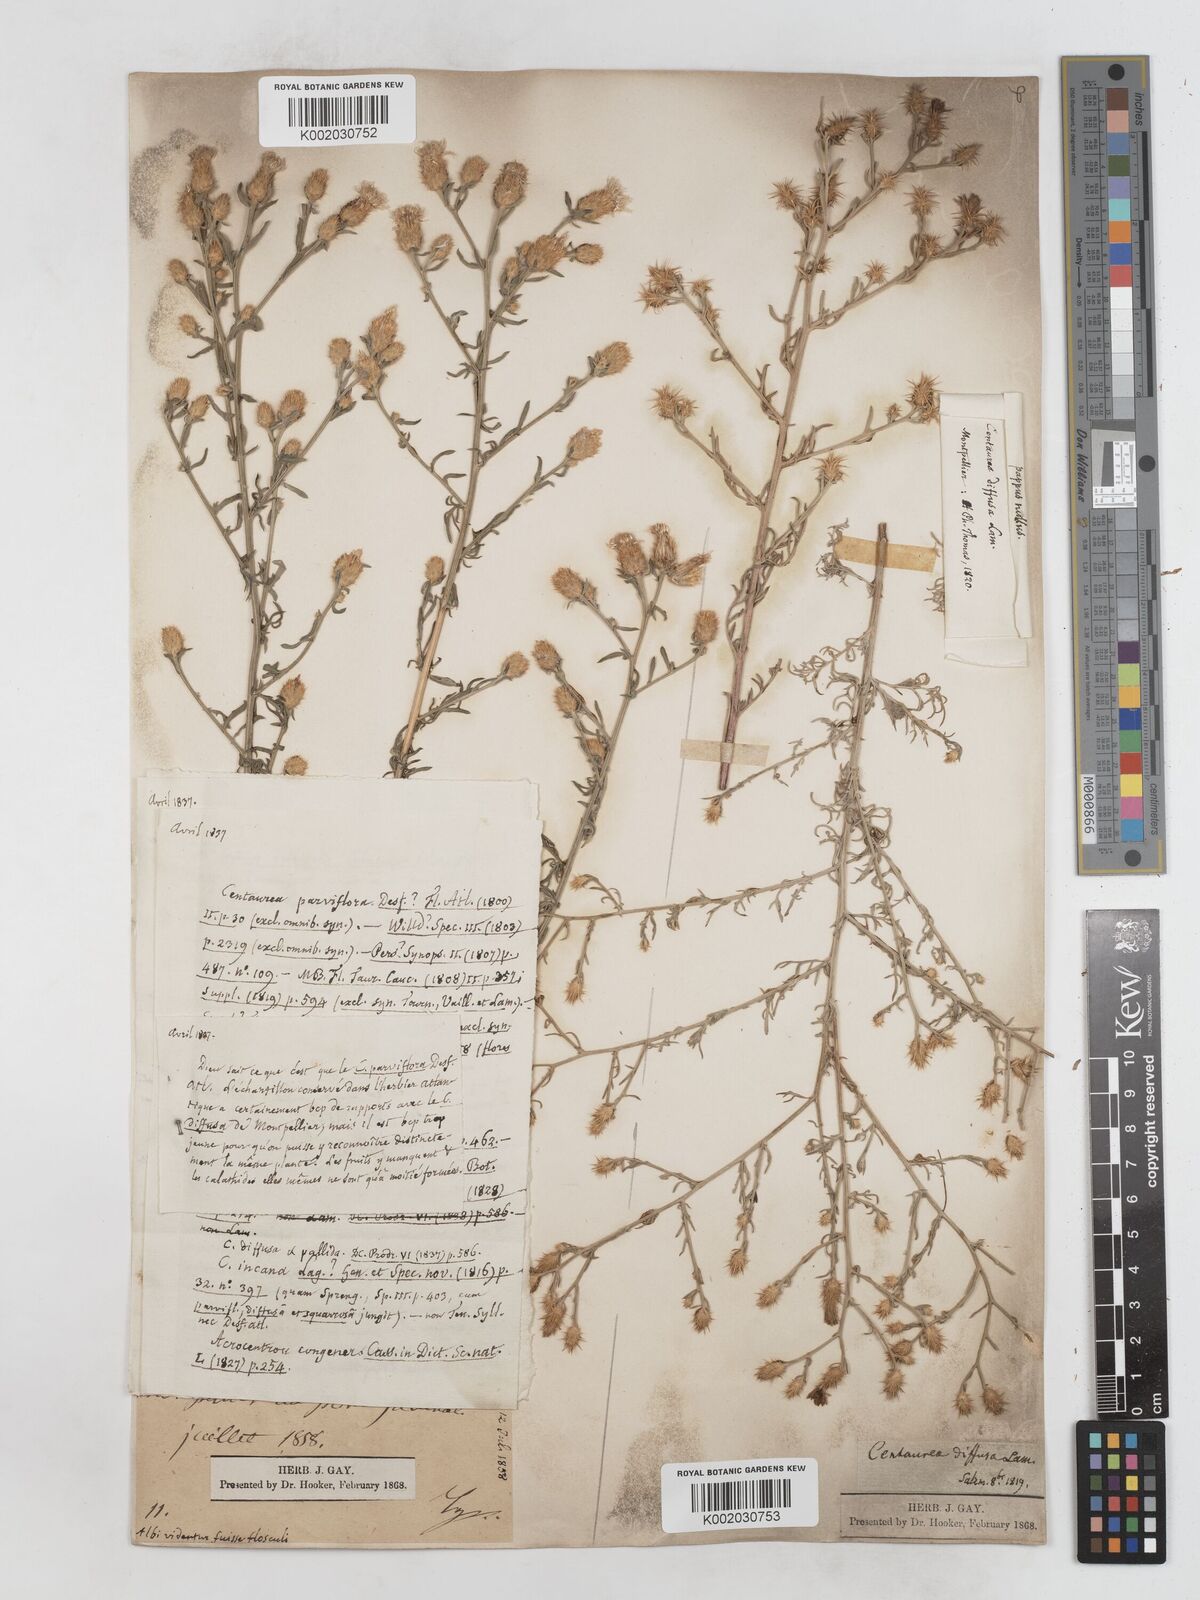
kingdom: Plantae
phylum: Tracheophyta
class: Magnoliopsida
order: Asterales
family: Asteraceae
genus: Centaurea
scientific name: Centaurea diffusa
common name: Diffuse knapweed
